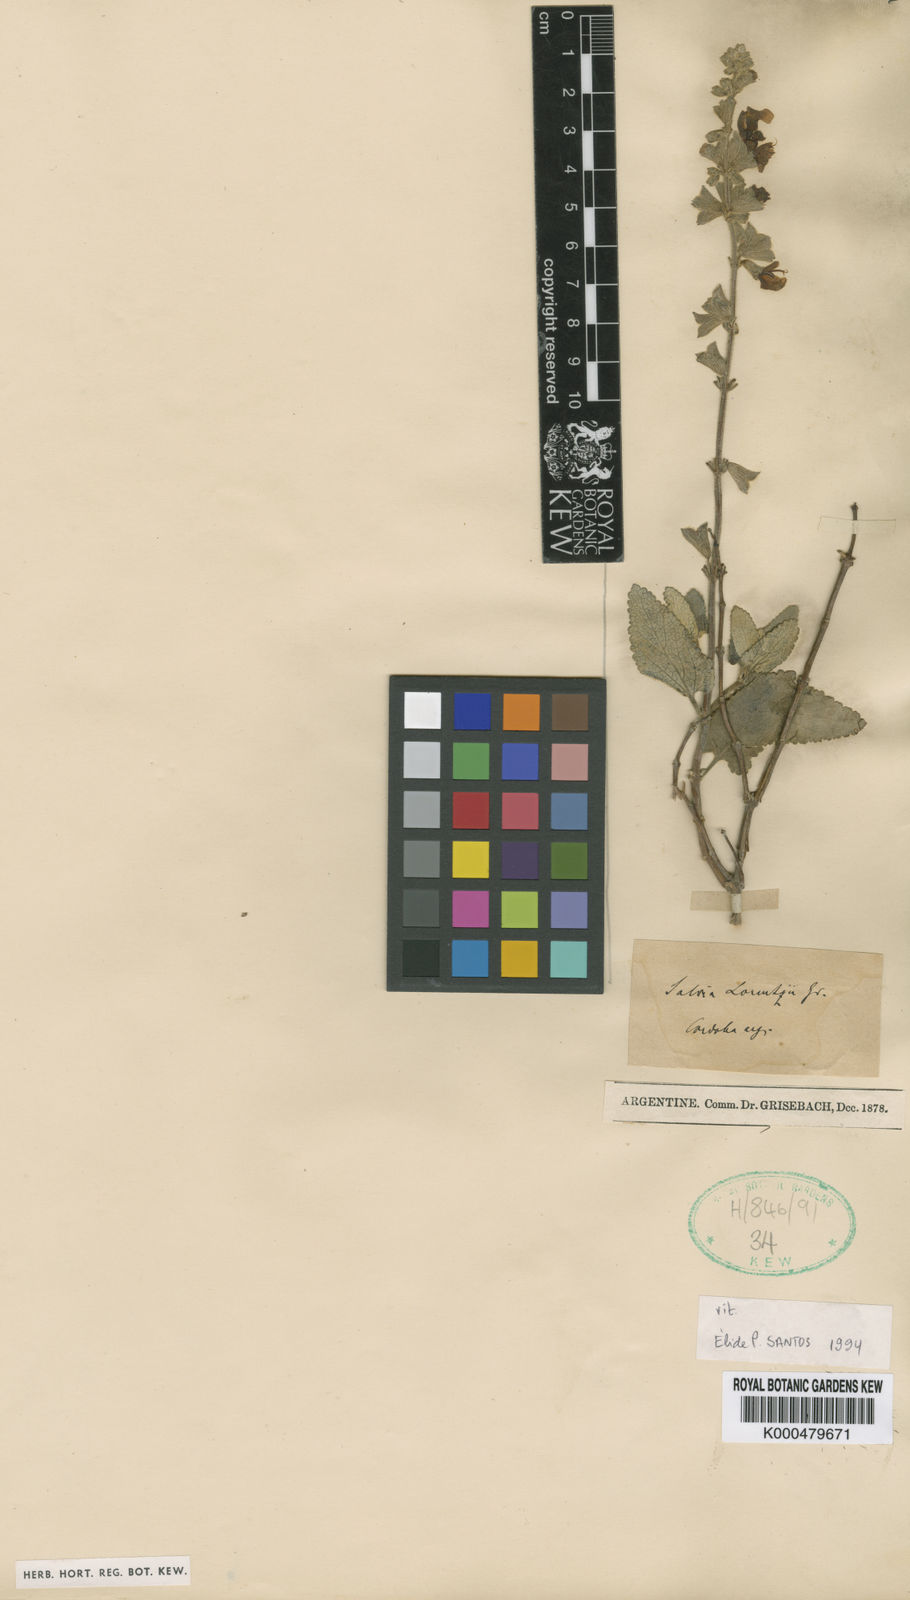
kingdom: Plantae
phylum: Tracheophyta
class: Magnoliopsida
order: Lamiales
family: Lamiaceae
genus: Salvia
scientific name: Salvia cuspidata
